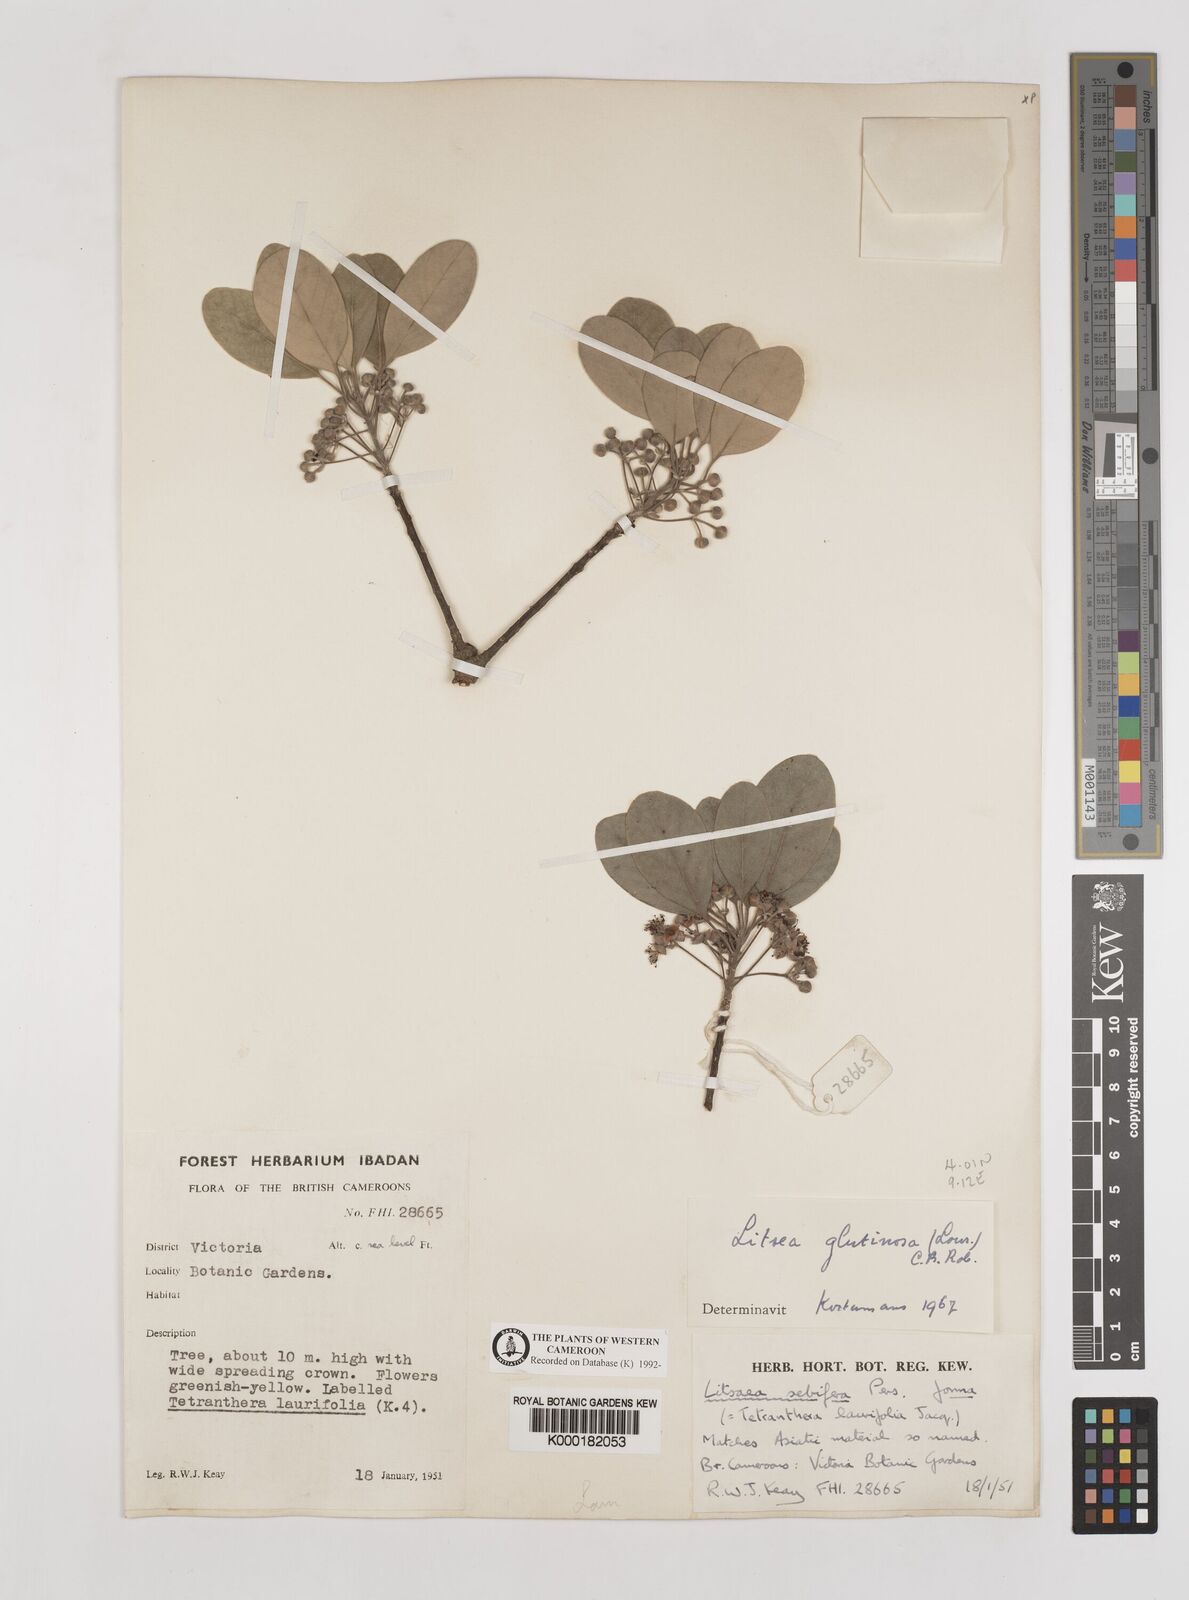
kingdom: Plantae
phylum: Tracheophyta
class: Magnoliopsida
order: Laurales
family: Lauraceae
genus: Litsea
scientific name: Litsea glutinosa
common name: Indian-laurel
